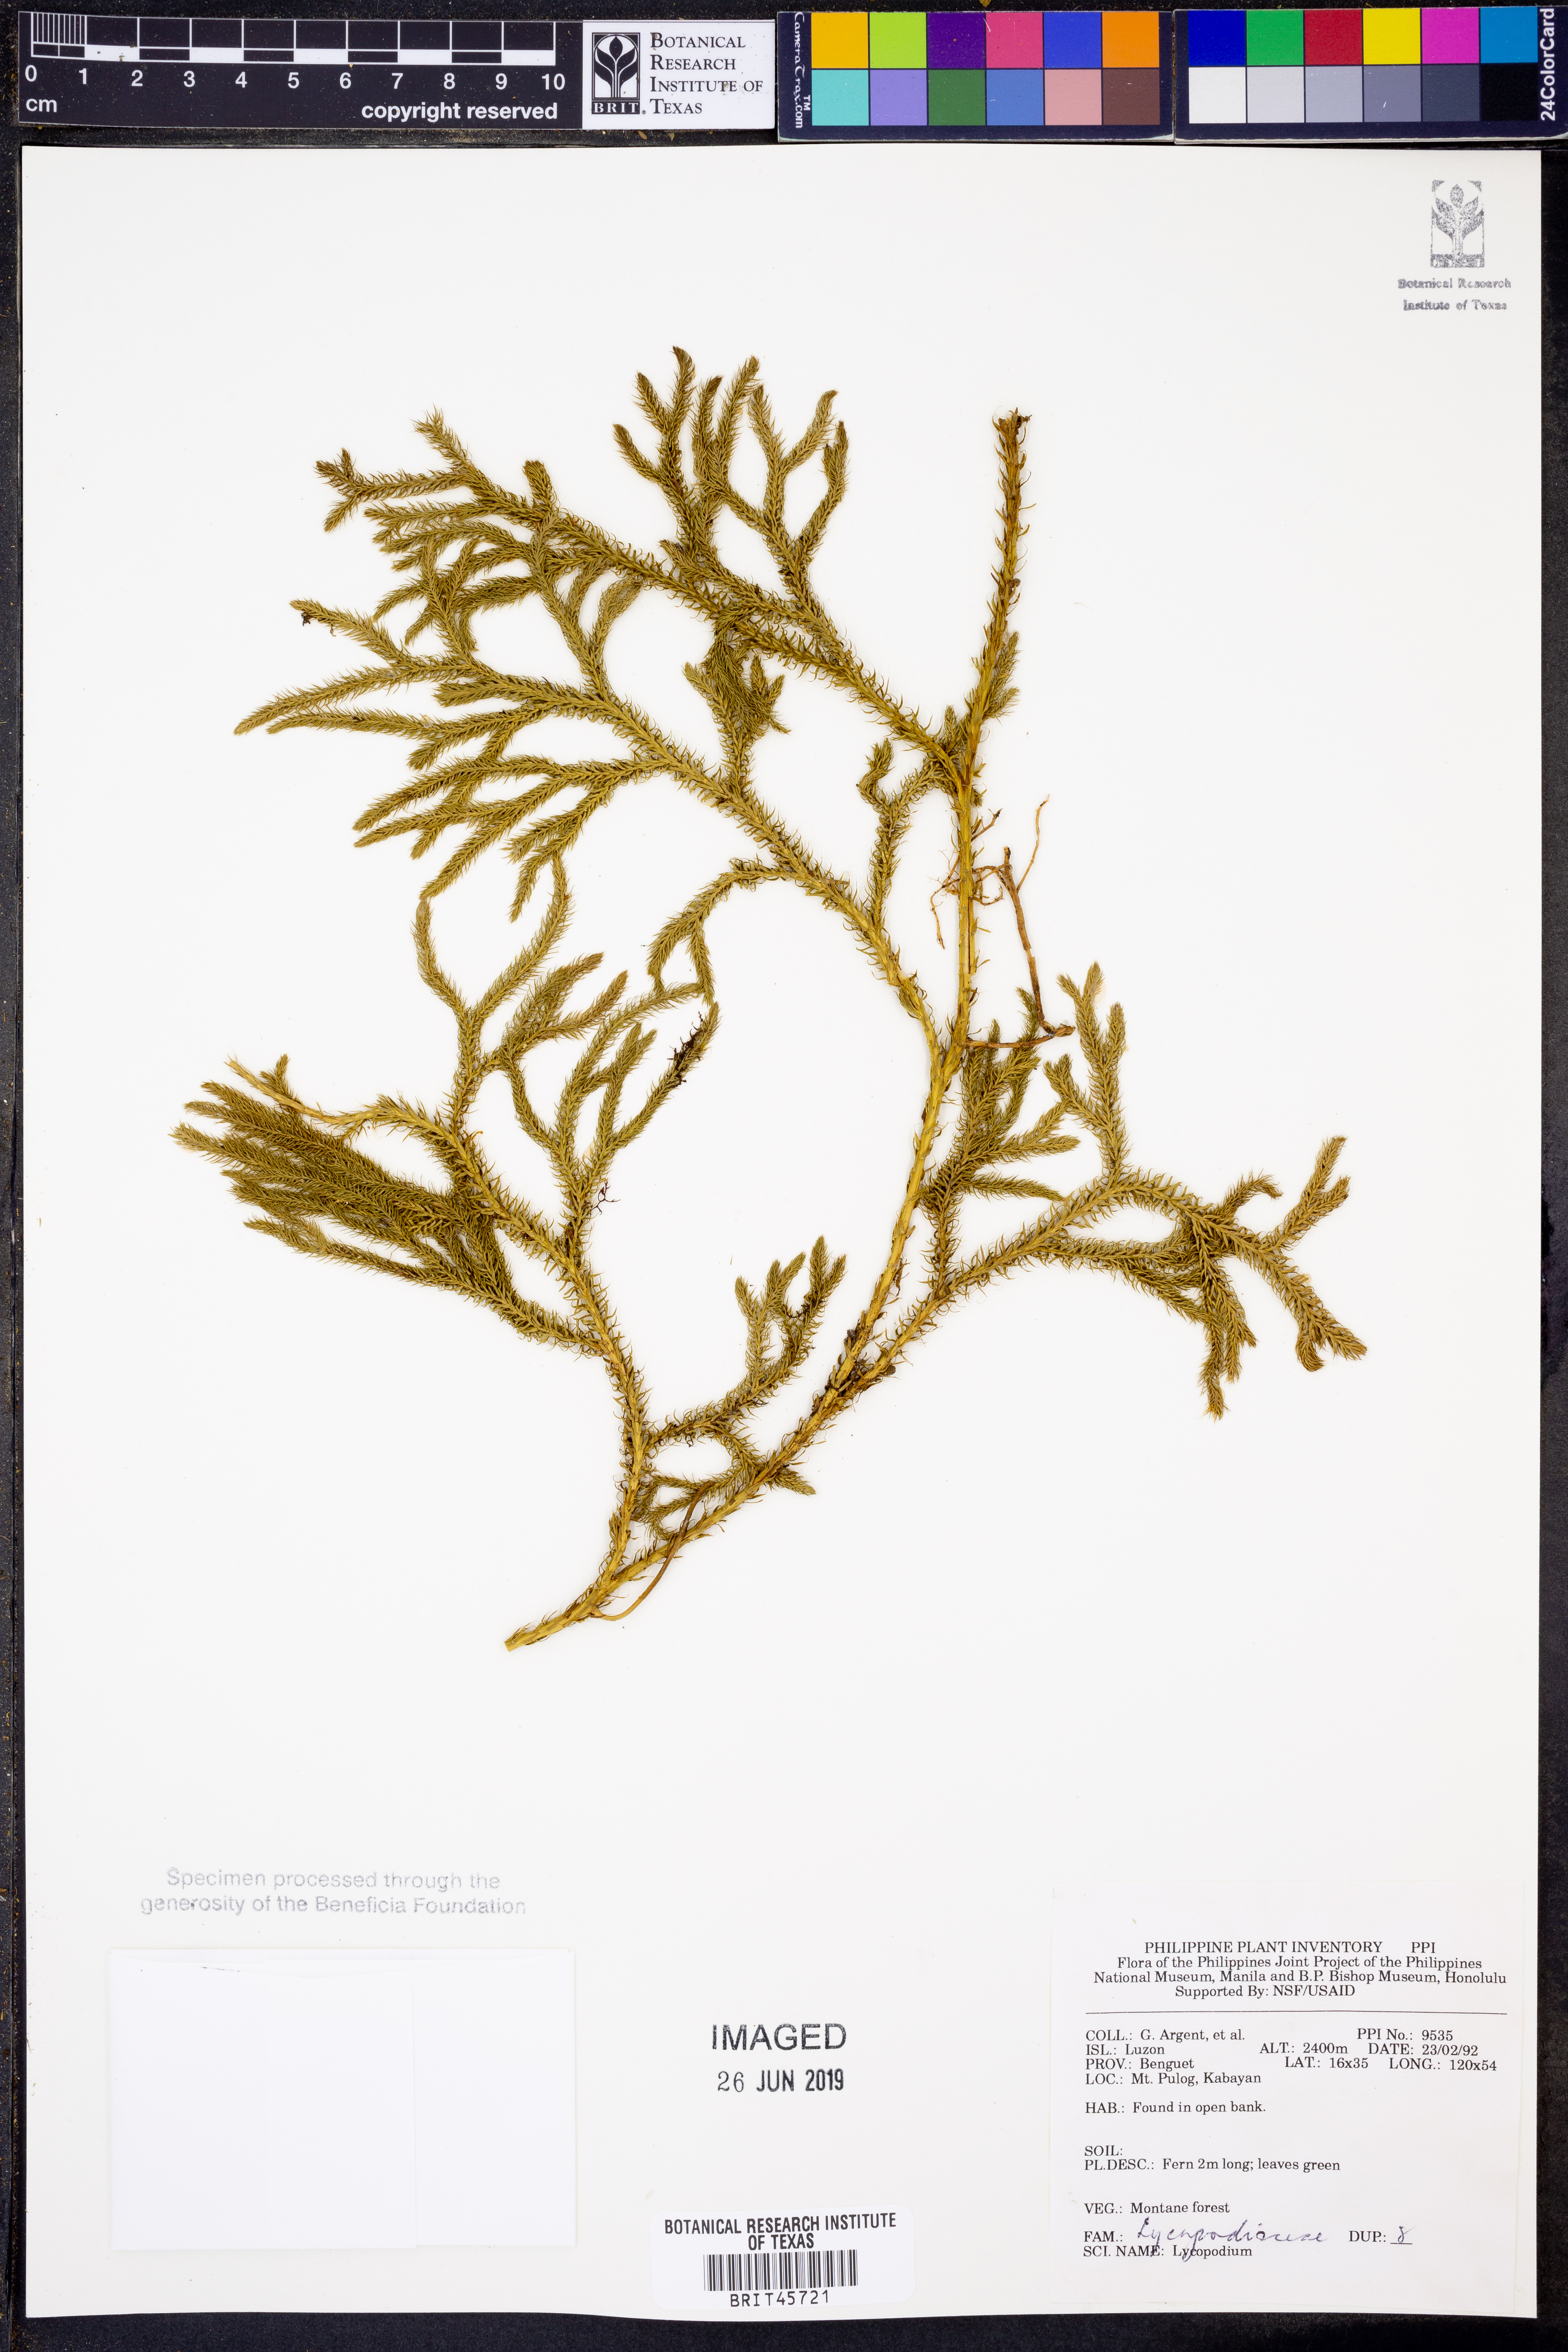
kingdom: Plantae
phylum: Tracheophyta
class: Lycopodiopsida
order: Lycopodiales
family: Lycopodiaceae
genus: Lycopodium
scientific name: Lycopodium
